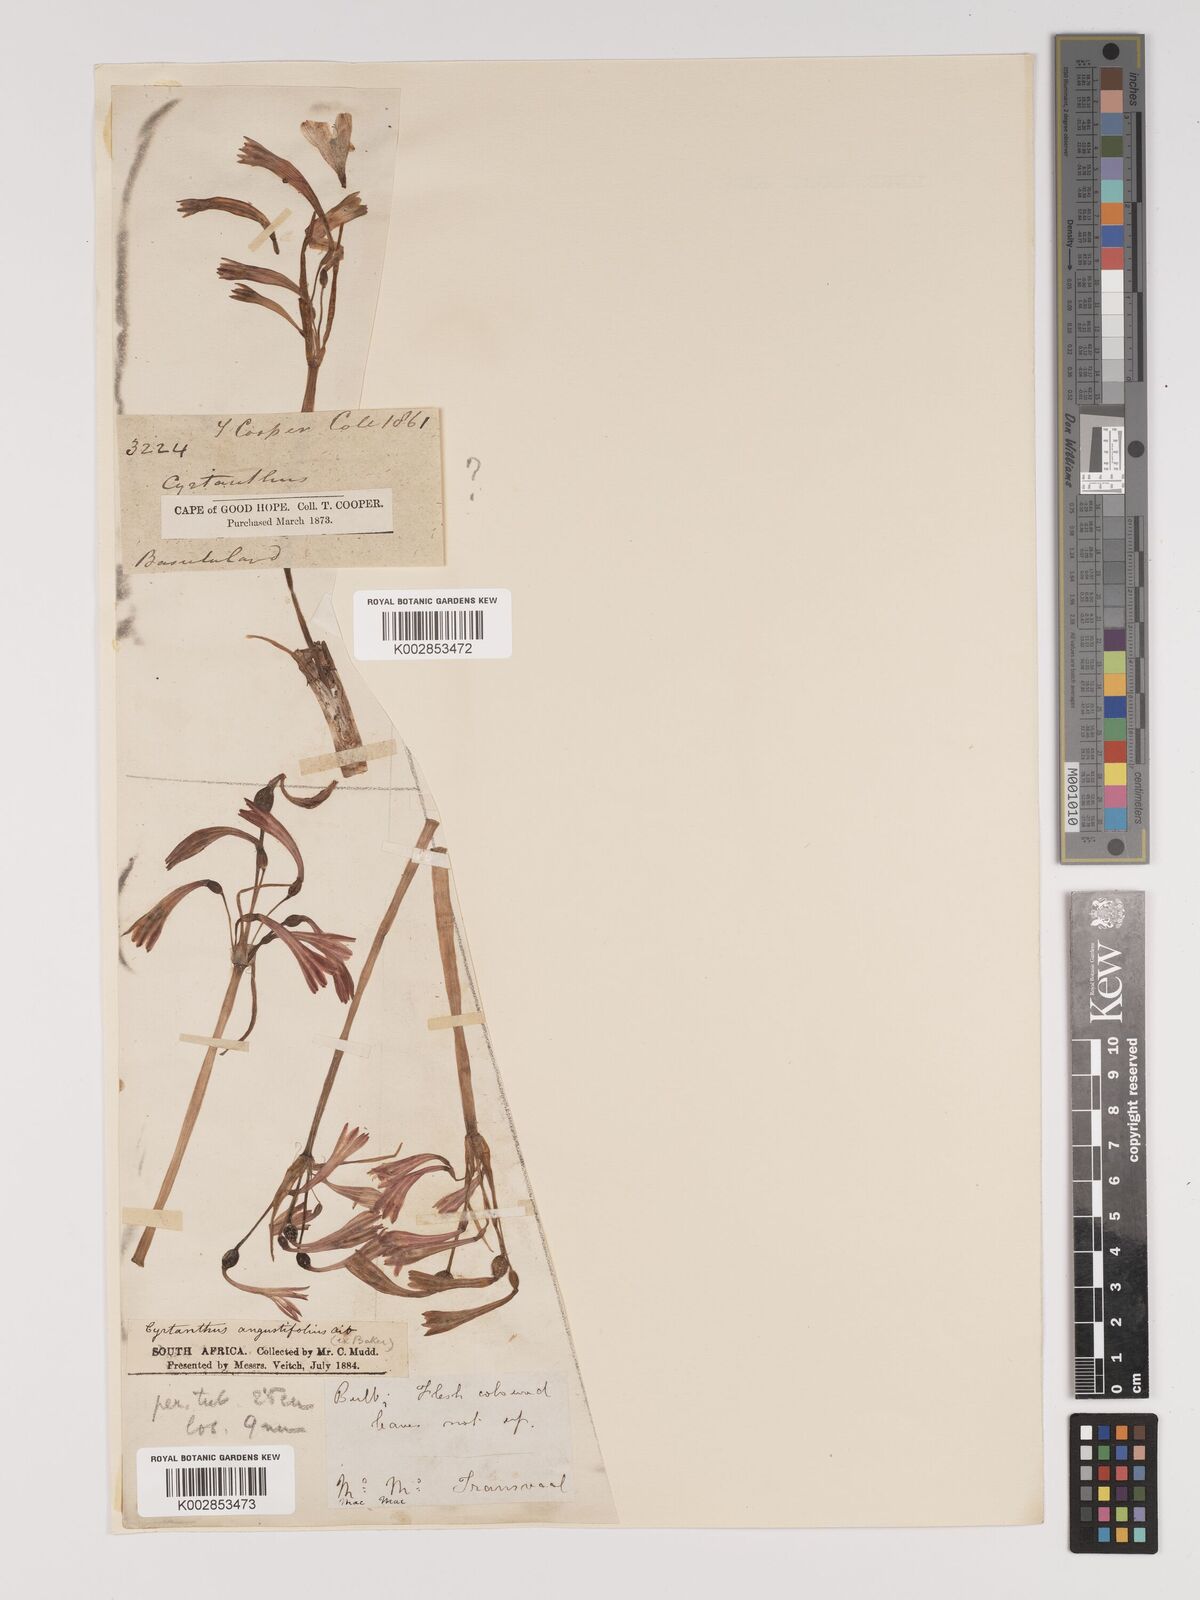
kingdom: Plantae
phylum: Tracheophyta
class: Liliopsida
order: Asparagales
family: Amaryllidaceae
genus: Cyrtanthus
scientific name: Cyrtanthus bicolor
